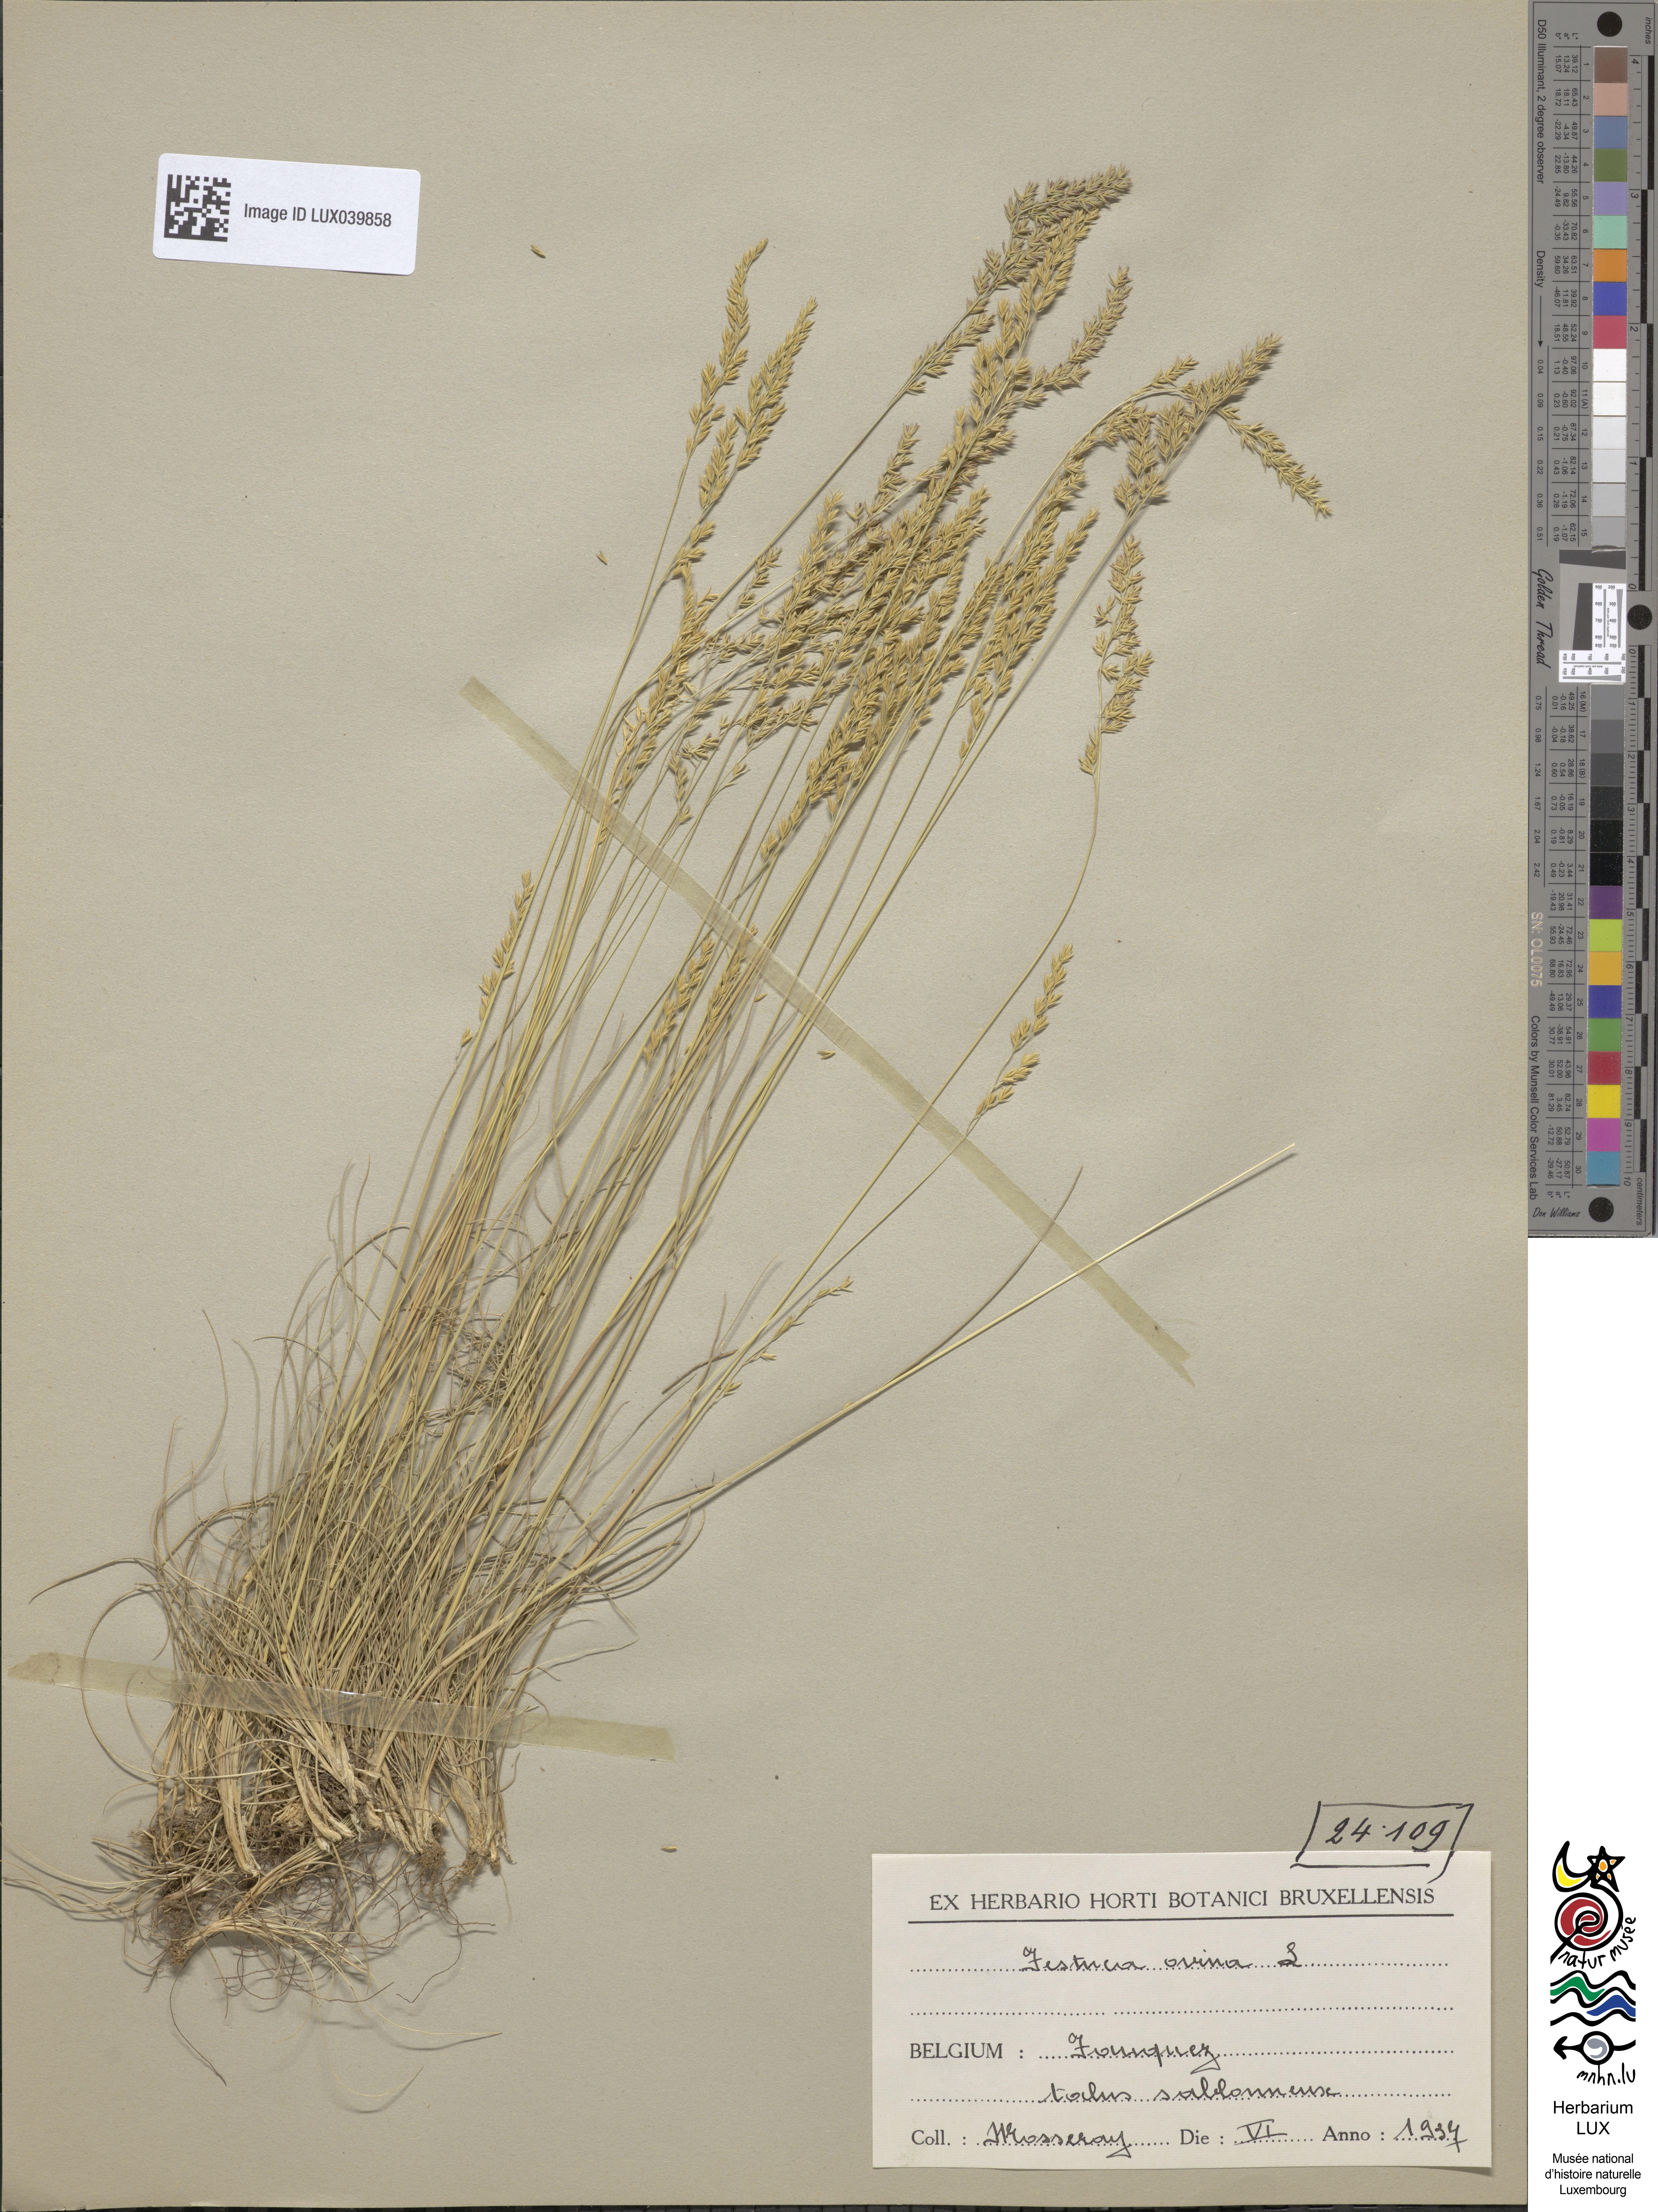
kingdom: Plantae
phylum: Tracheophyta
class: Liliopsida
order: Poales
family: Poaceae
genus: Festuca
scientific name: Festuca ovina
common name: Sheep fescue
